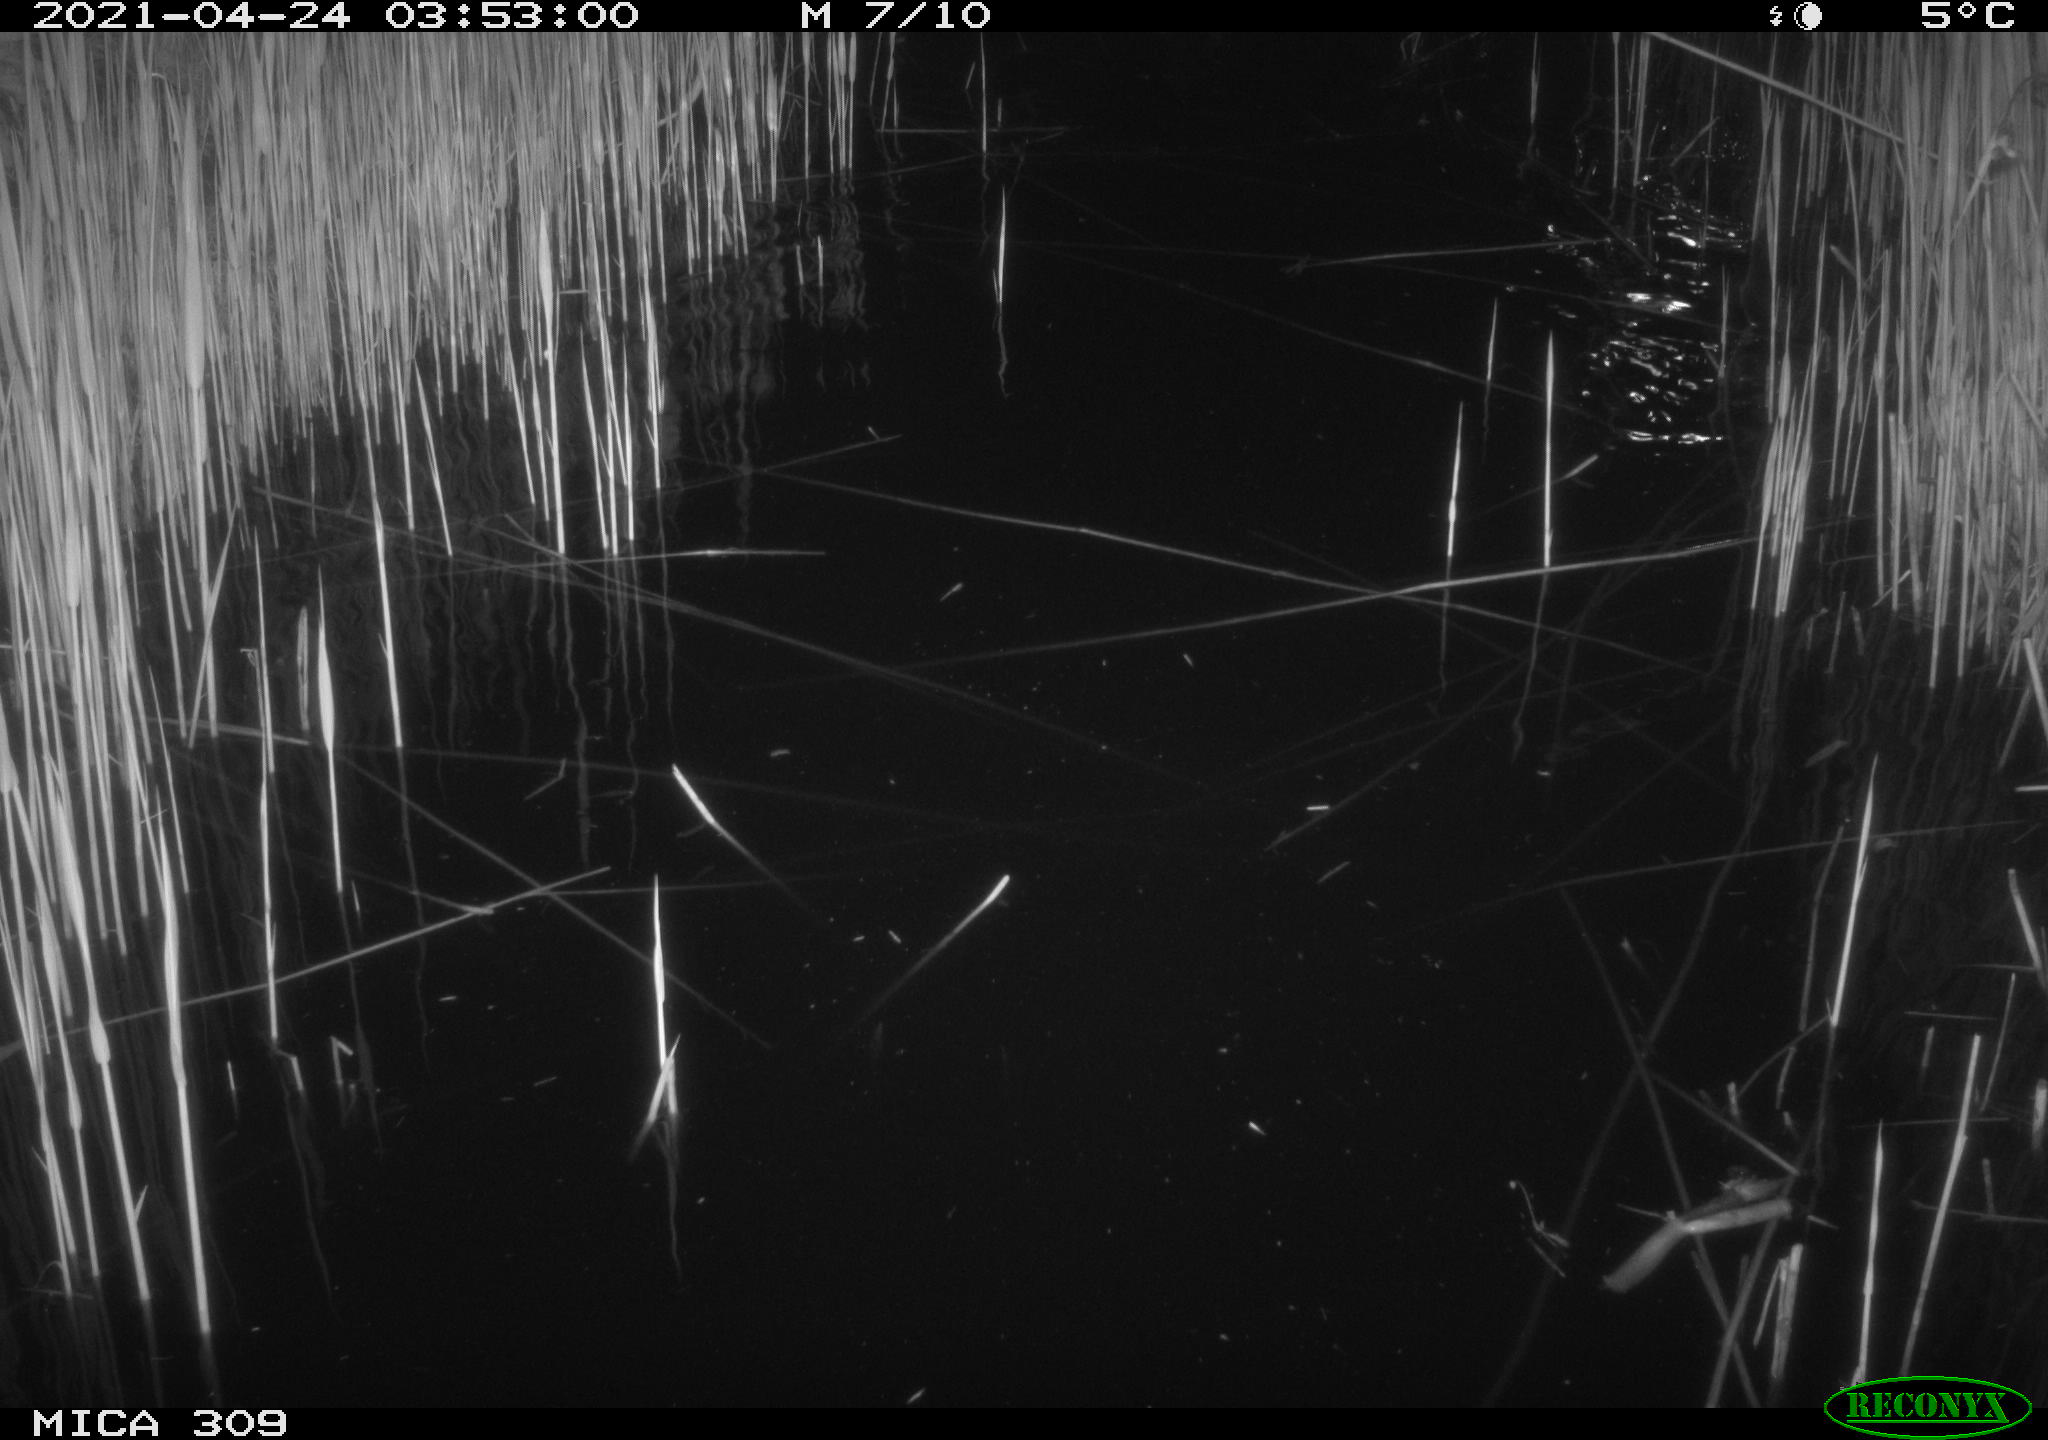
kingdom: Animalia
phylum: Chordata
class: Aves
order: Anseriformes
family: Anatidae
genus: Anas
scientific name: Anas platyrhynchos
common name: Mallard
